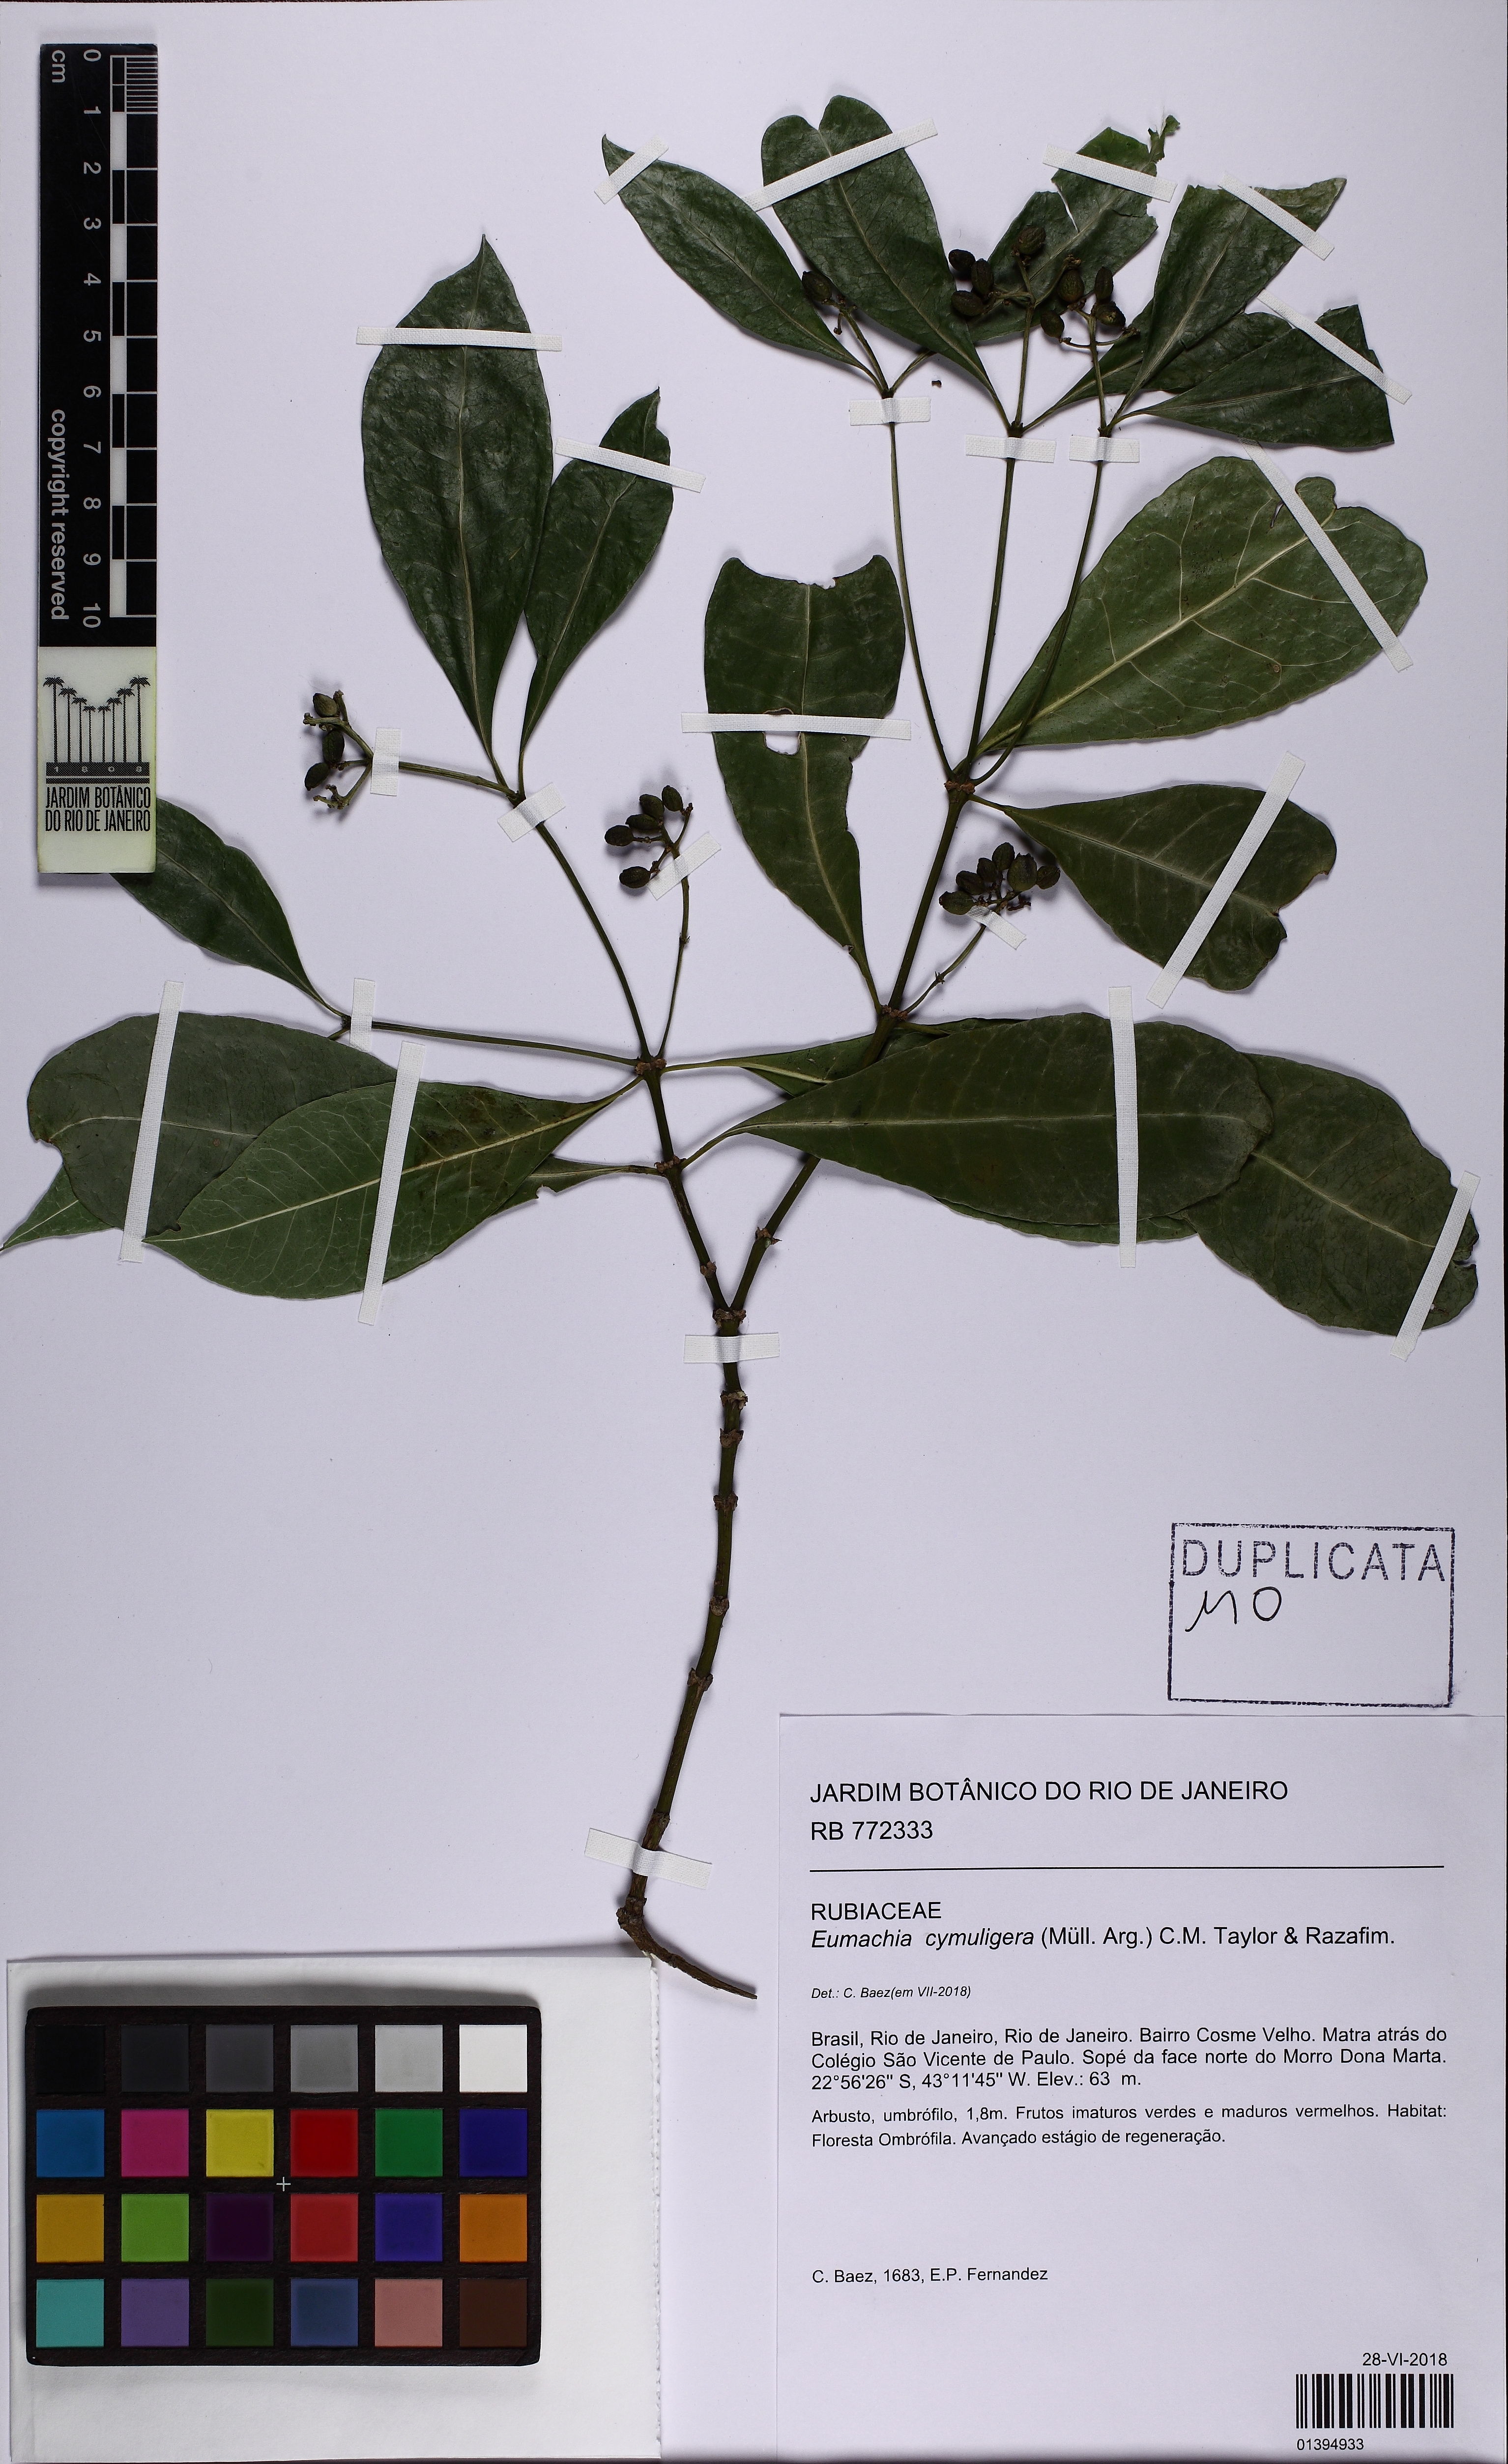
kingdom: Plantae
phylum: Tracheophyta
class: Magnoliopsida
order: Gentianales
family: Rubiaceae
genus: Eumachia
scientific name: Eumachia cymuligera
